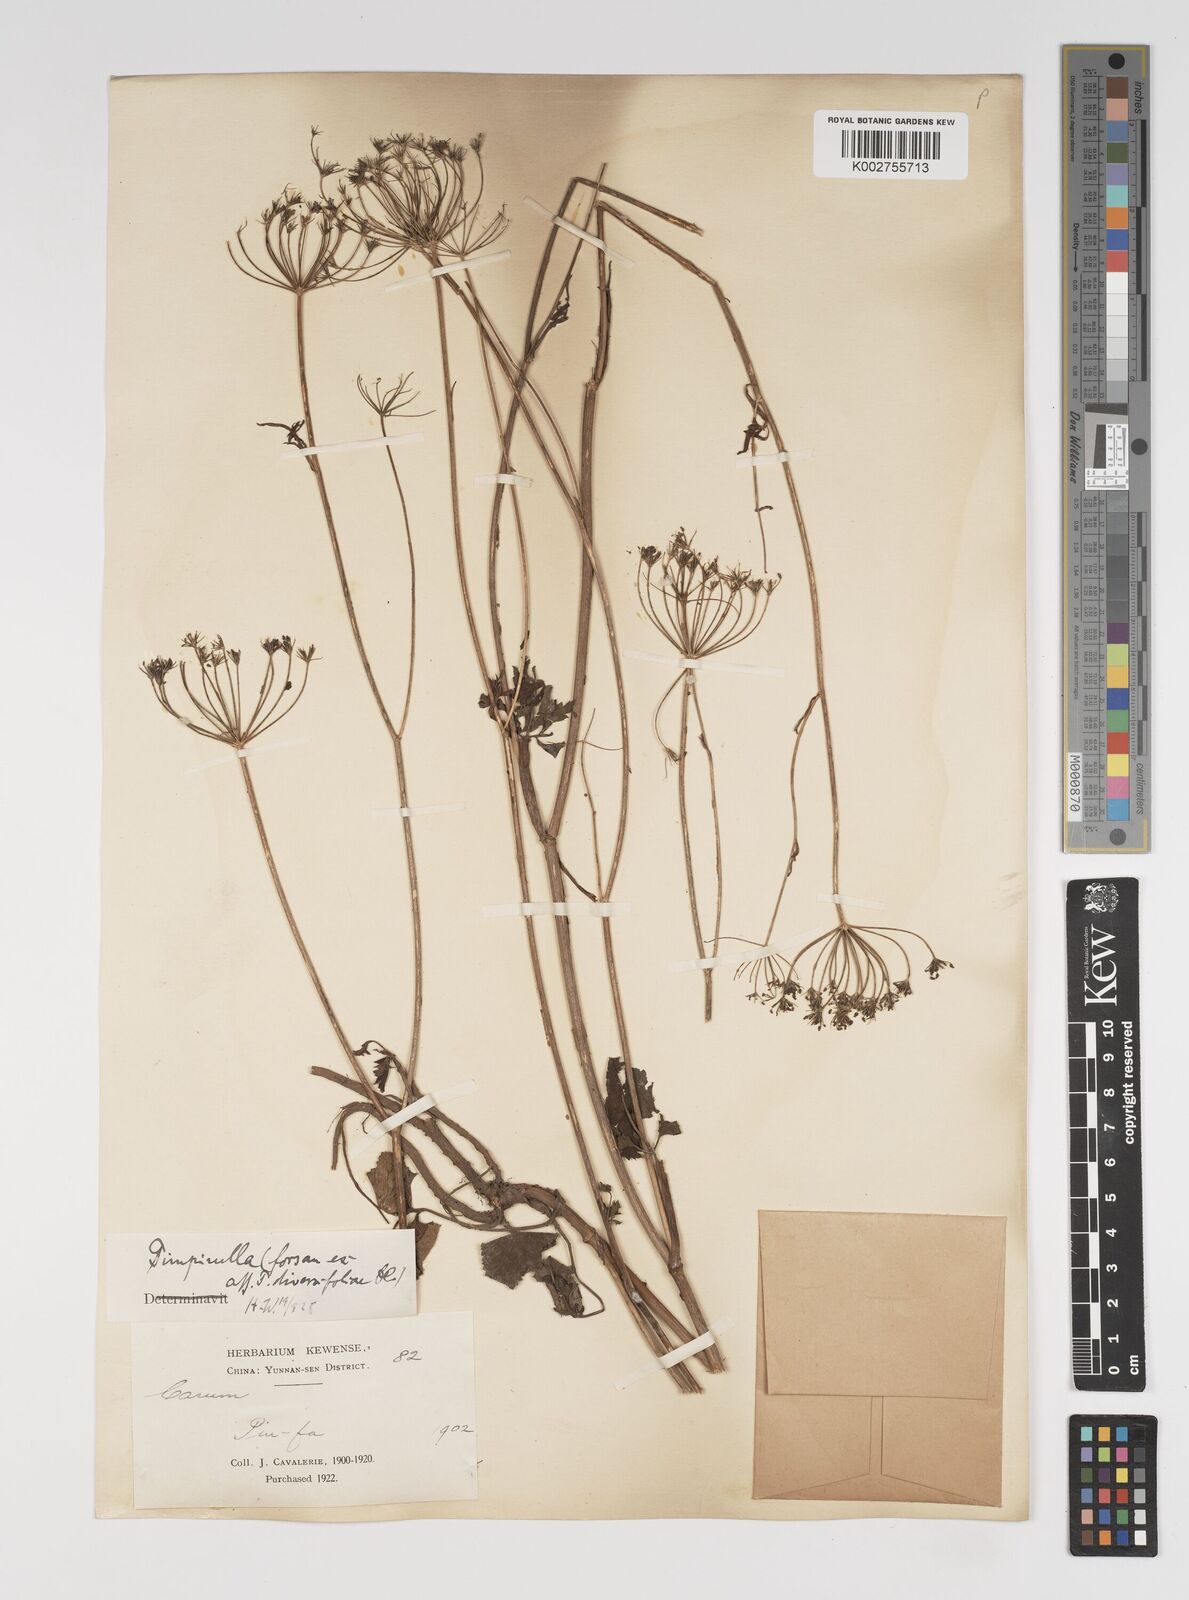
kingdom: Plantae
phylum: Tracheophyta
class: Magnoliopsida
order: Apiales
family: Apiaceae
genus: Pimpinella
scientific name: Pimpinella diversifolia
